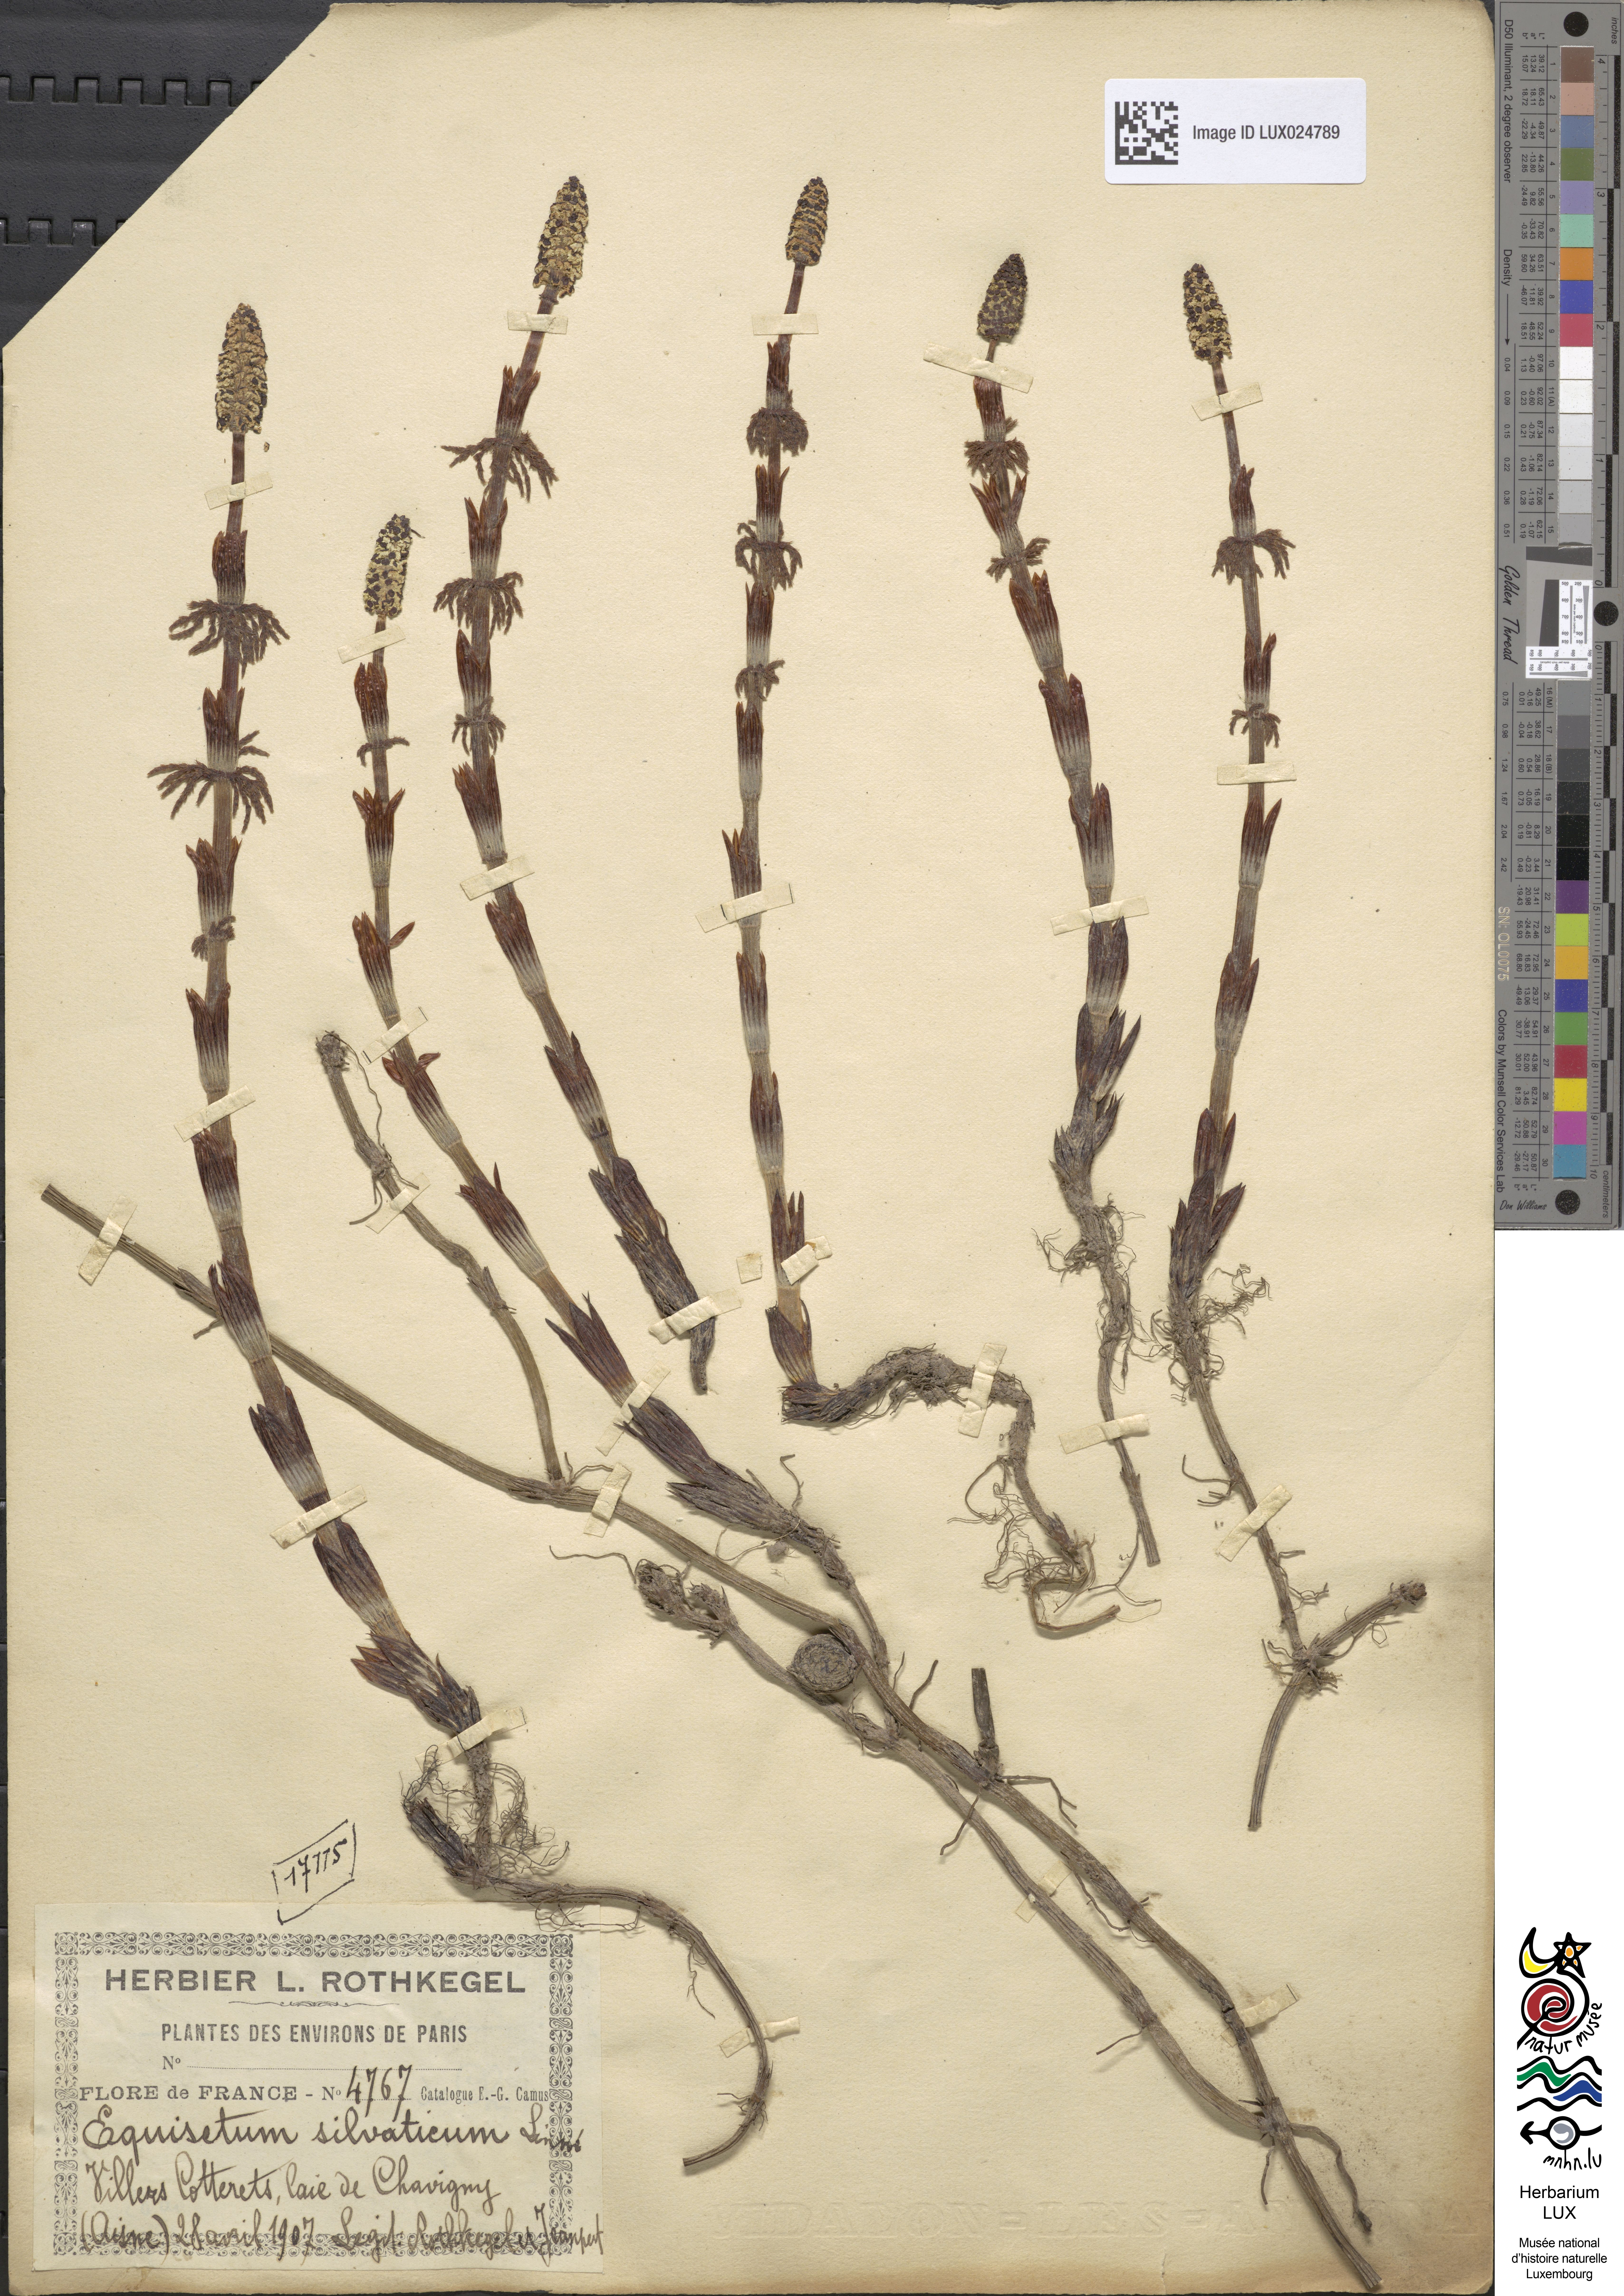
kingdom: Plantae
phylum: Tracheophyta
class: Polypodiopsida
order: Equisetales
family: Equisetaceae
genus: Equisetum
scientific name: Equisetum sylvaticum
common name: Wood horsetail
